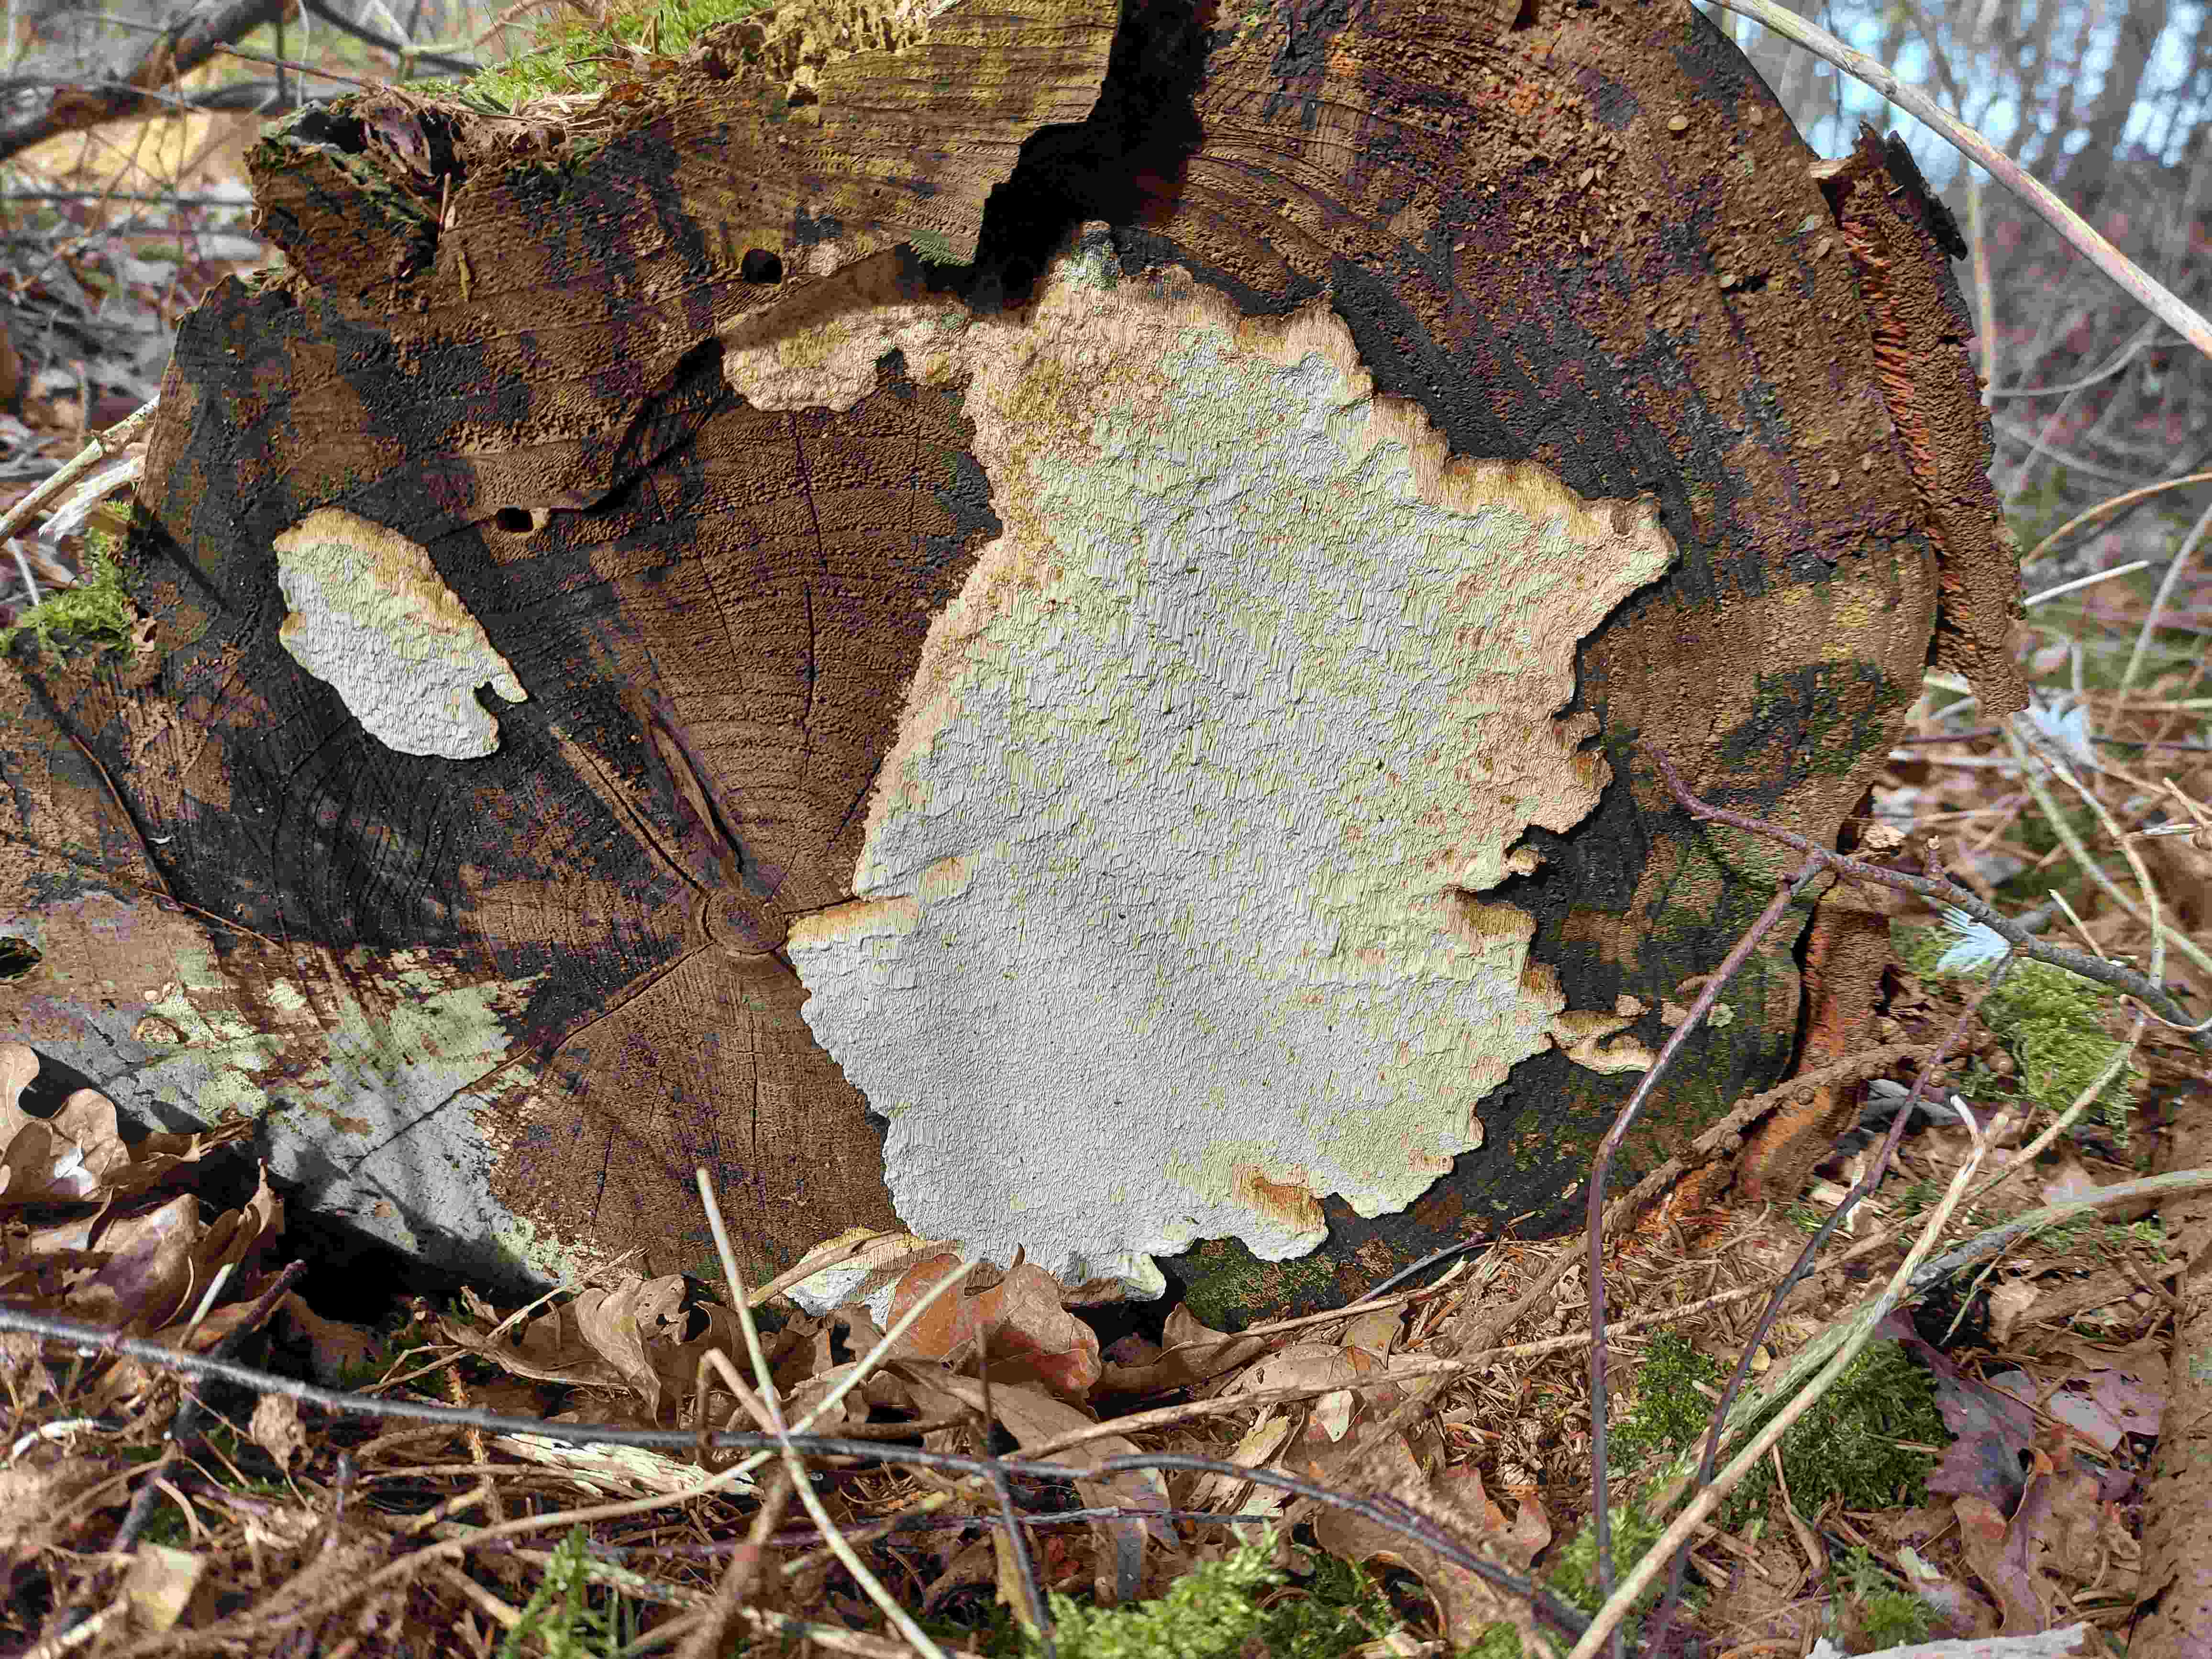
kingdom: Fungi
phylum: Basidiomycota
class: Agaricomycetes
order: Polyporales
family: Fomitopsidaceae
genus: Neoantrodia
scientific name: Neoantrodia serialis
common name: række-sejporesvamp
